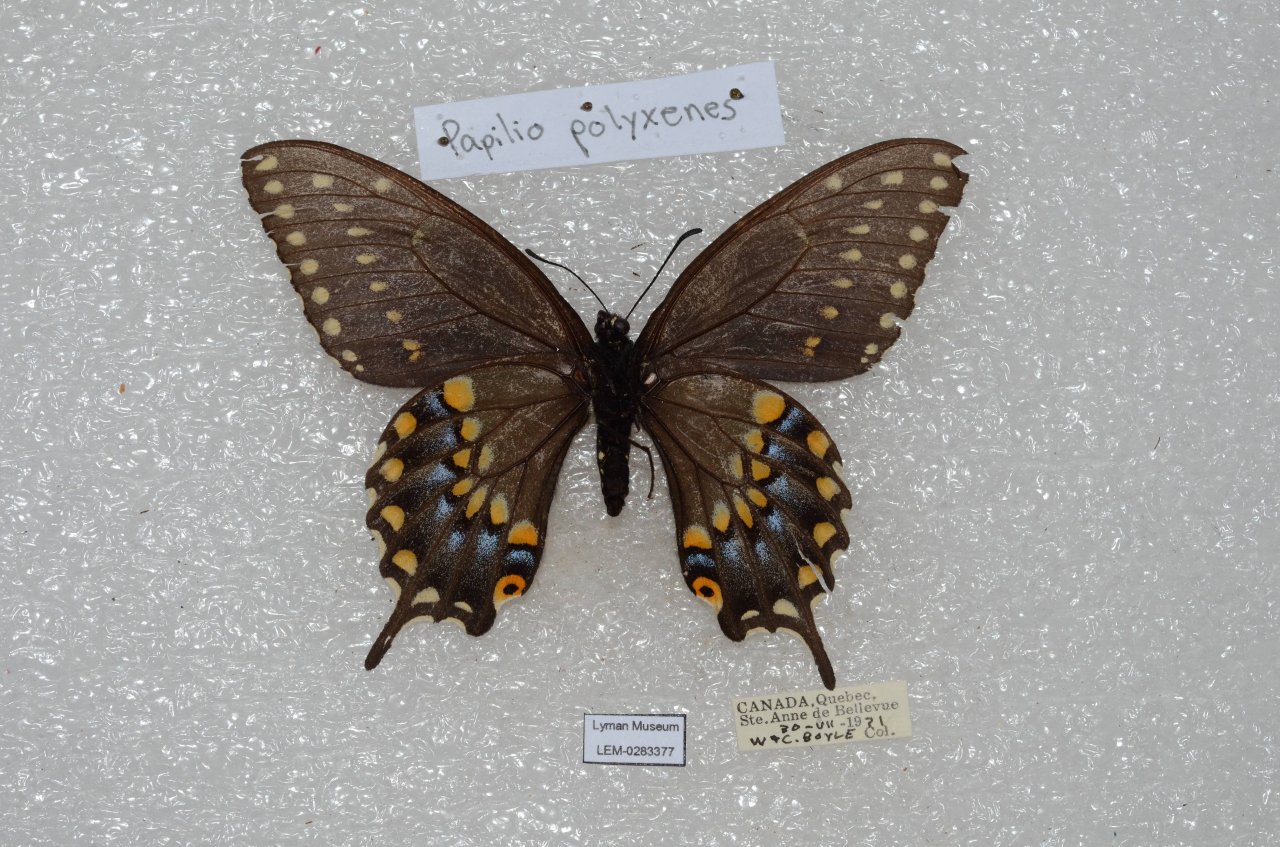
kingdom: Animalia
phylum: Arthropoda
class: Insecta
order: Lepidoptera
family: Papilionidae
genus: Papilio
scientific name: Papilio polyxenes
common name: Black Swallowtail
